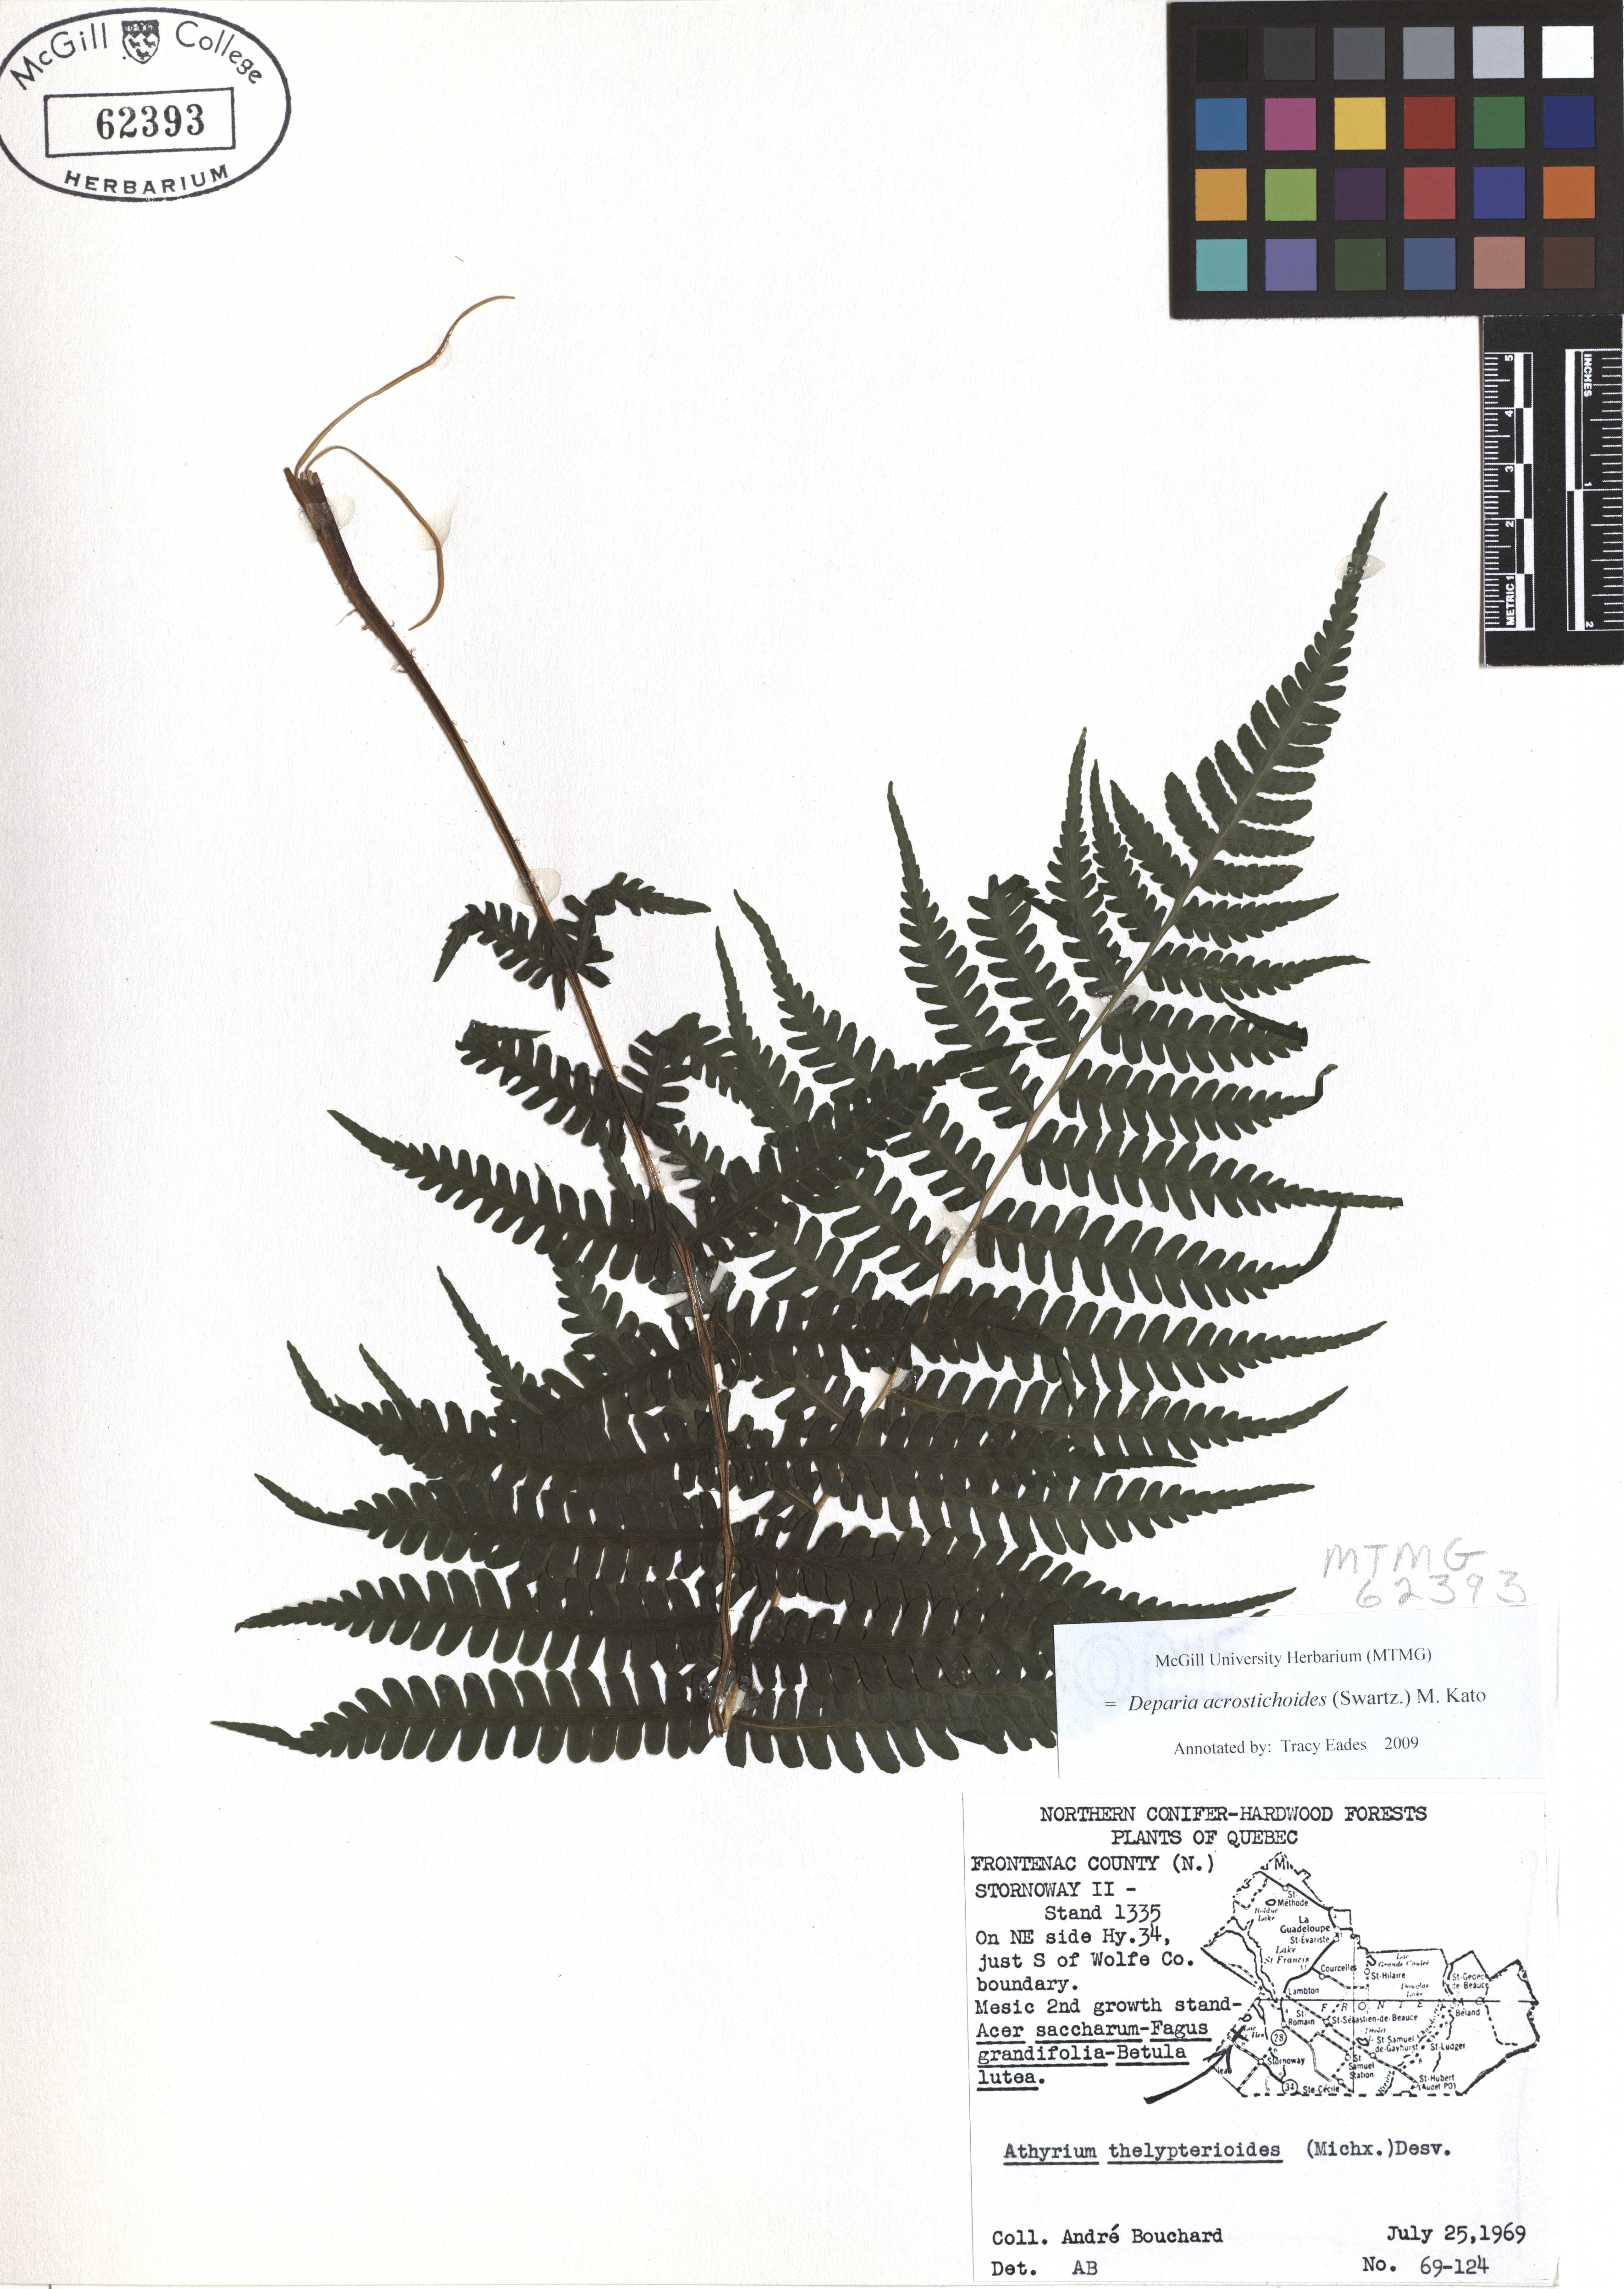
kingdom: Plantae
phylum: Tracheophyta
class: Polypodiopsida
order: Polypodiales
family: Athyriaceae
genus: Deparia
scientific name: Deparia acrostichoides
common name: Silver false spleenwort
